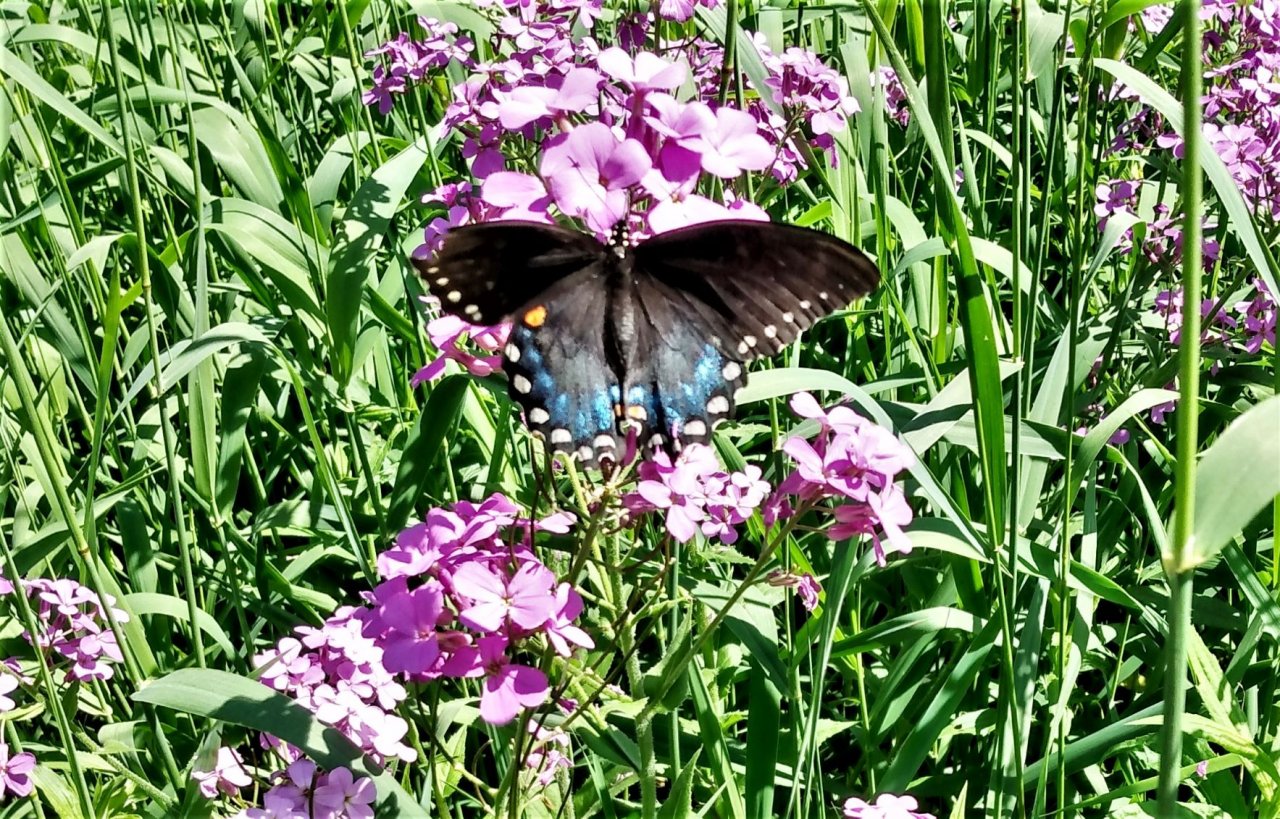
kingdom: Animalia
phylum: Arthropoda
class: Insecta
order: Lepidoptera
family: Papilionidae
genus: Pterourus
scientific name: Pterourus troilus
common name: Spicebush Swallowtail
